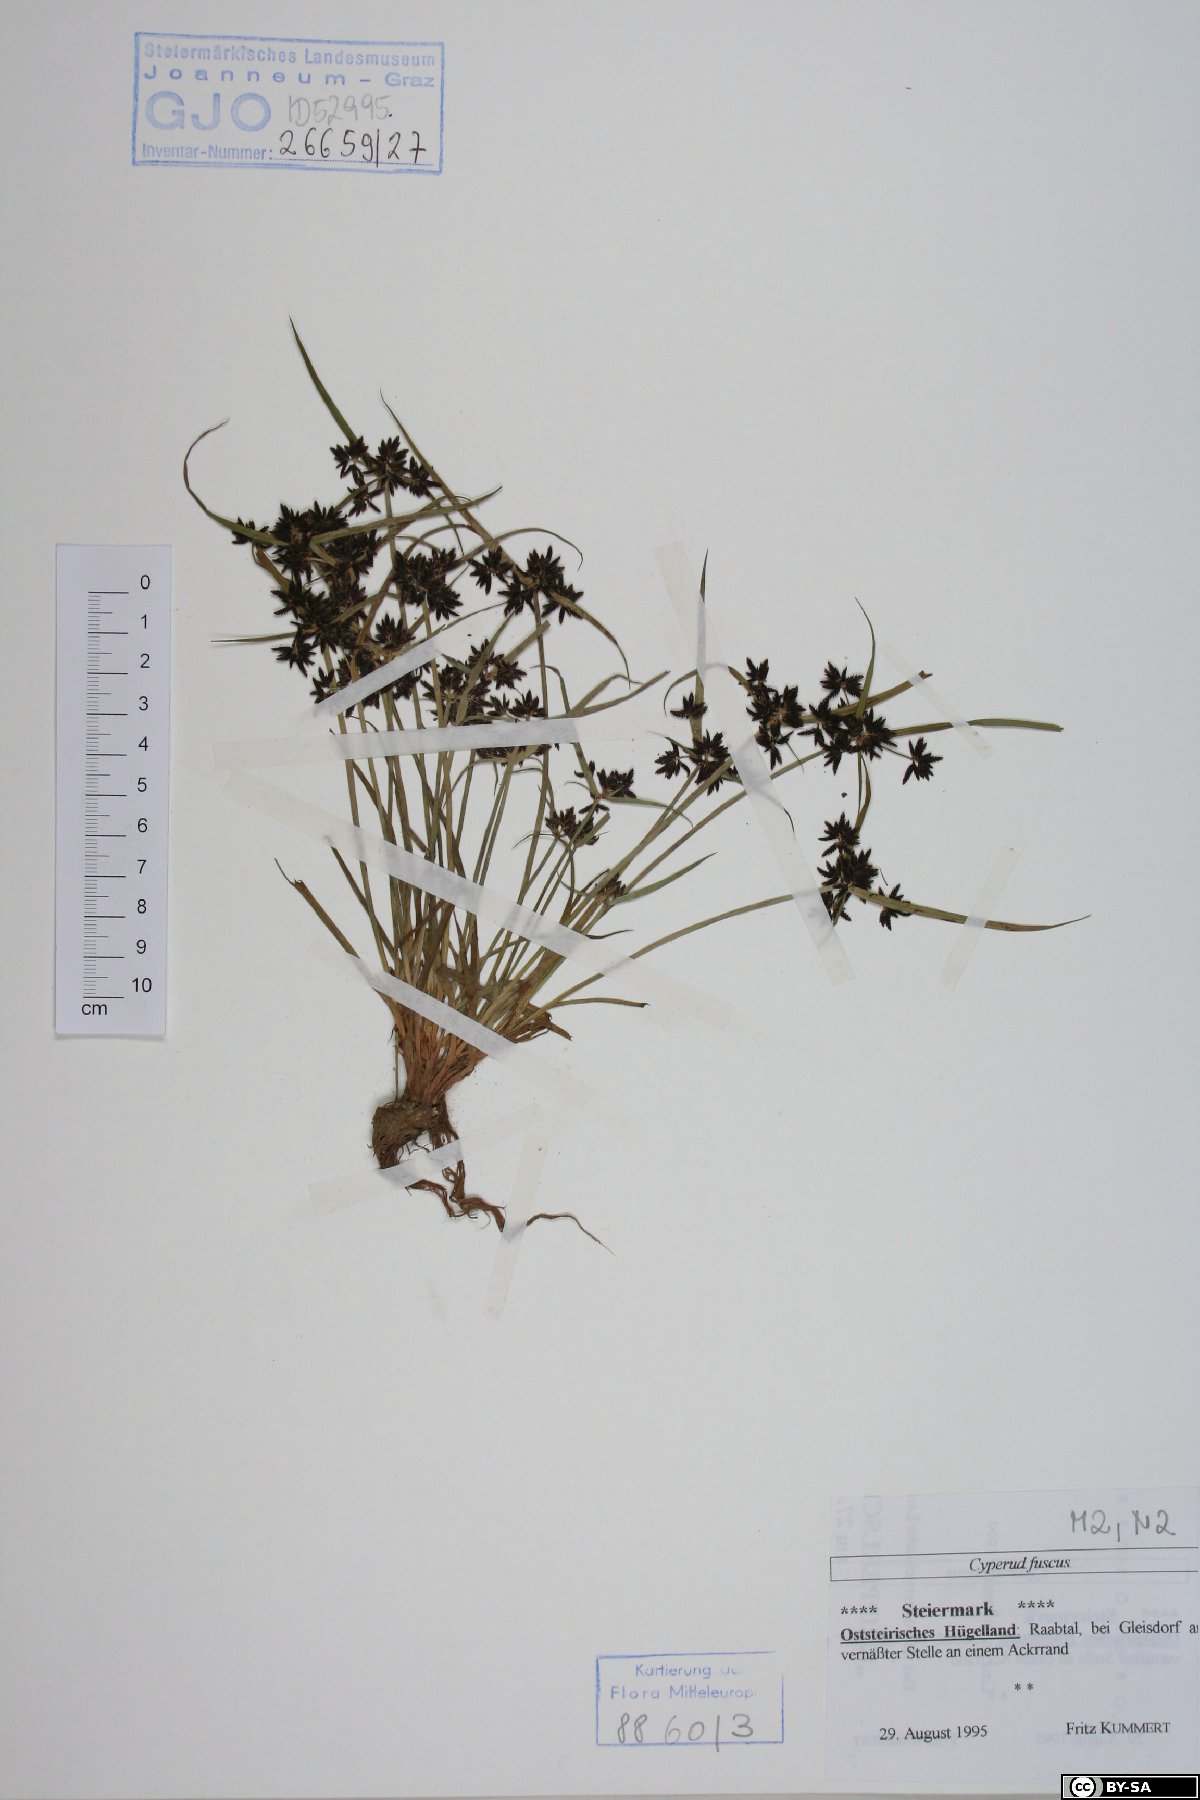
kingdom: Plantae
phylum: Tracheophyta
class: Liliopsida
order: Poales
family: Cyperaceae
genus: Cyperus
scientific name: Cyperus fuscus
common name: Brown galingale
